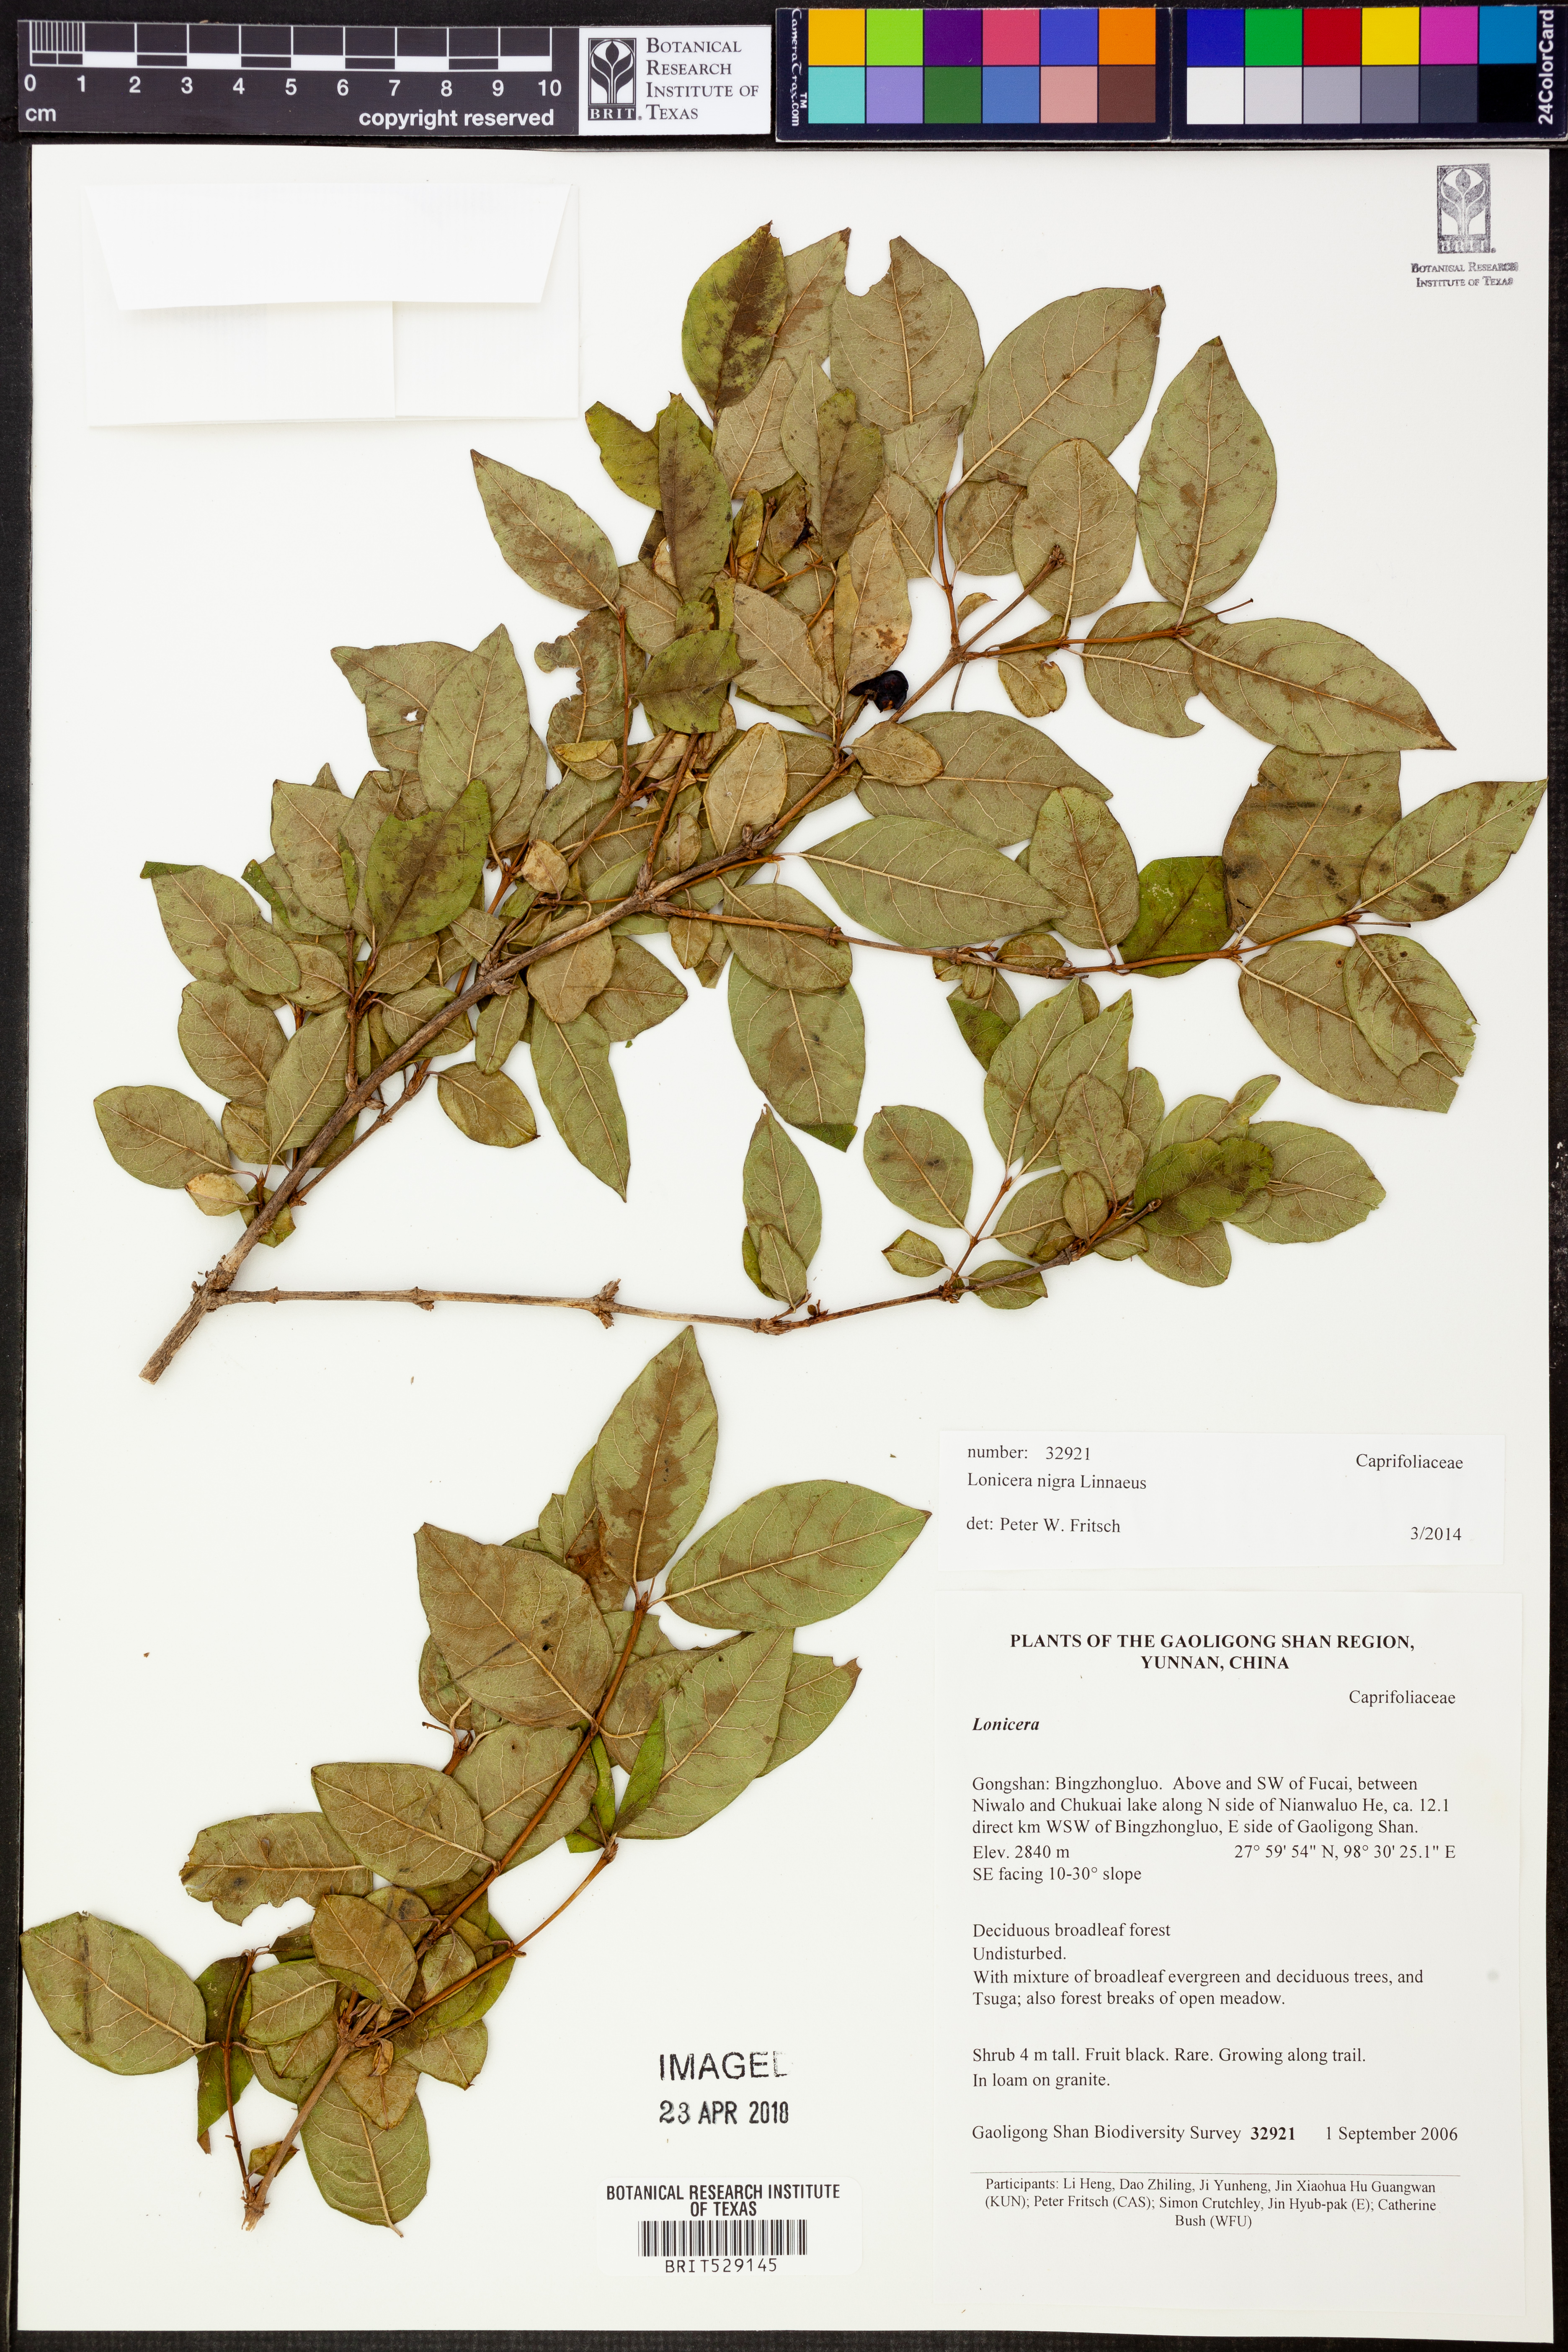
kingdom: Plantae
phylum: Tracheophyta
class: Magnoliopsida
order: Dipsacales
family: Caprifoliaceae
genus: Lonicera
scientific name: Lonicera nigra
